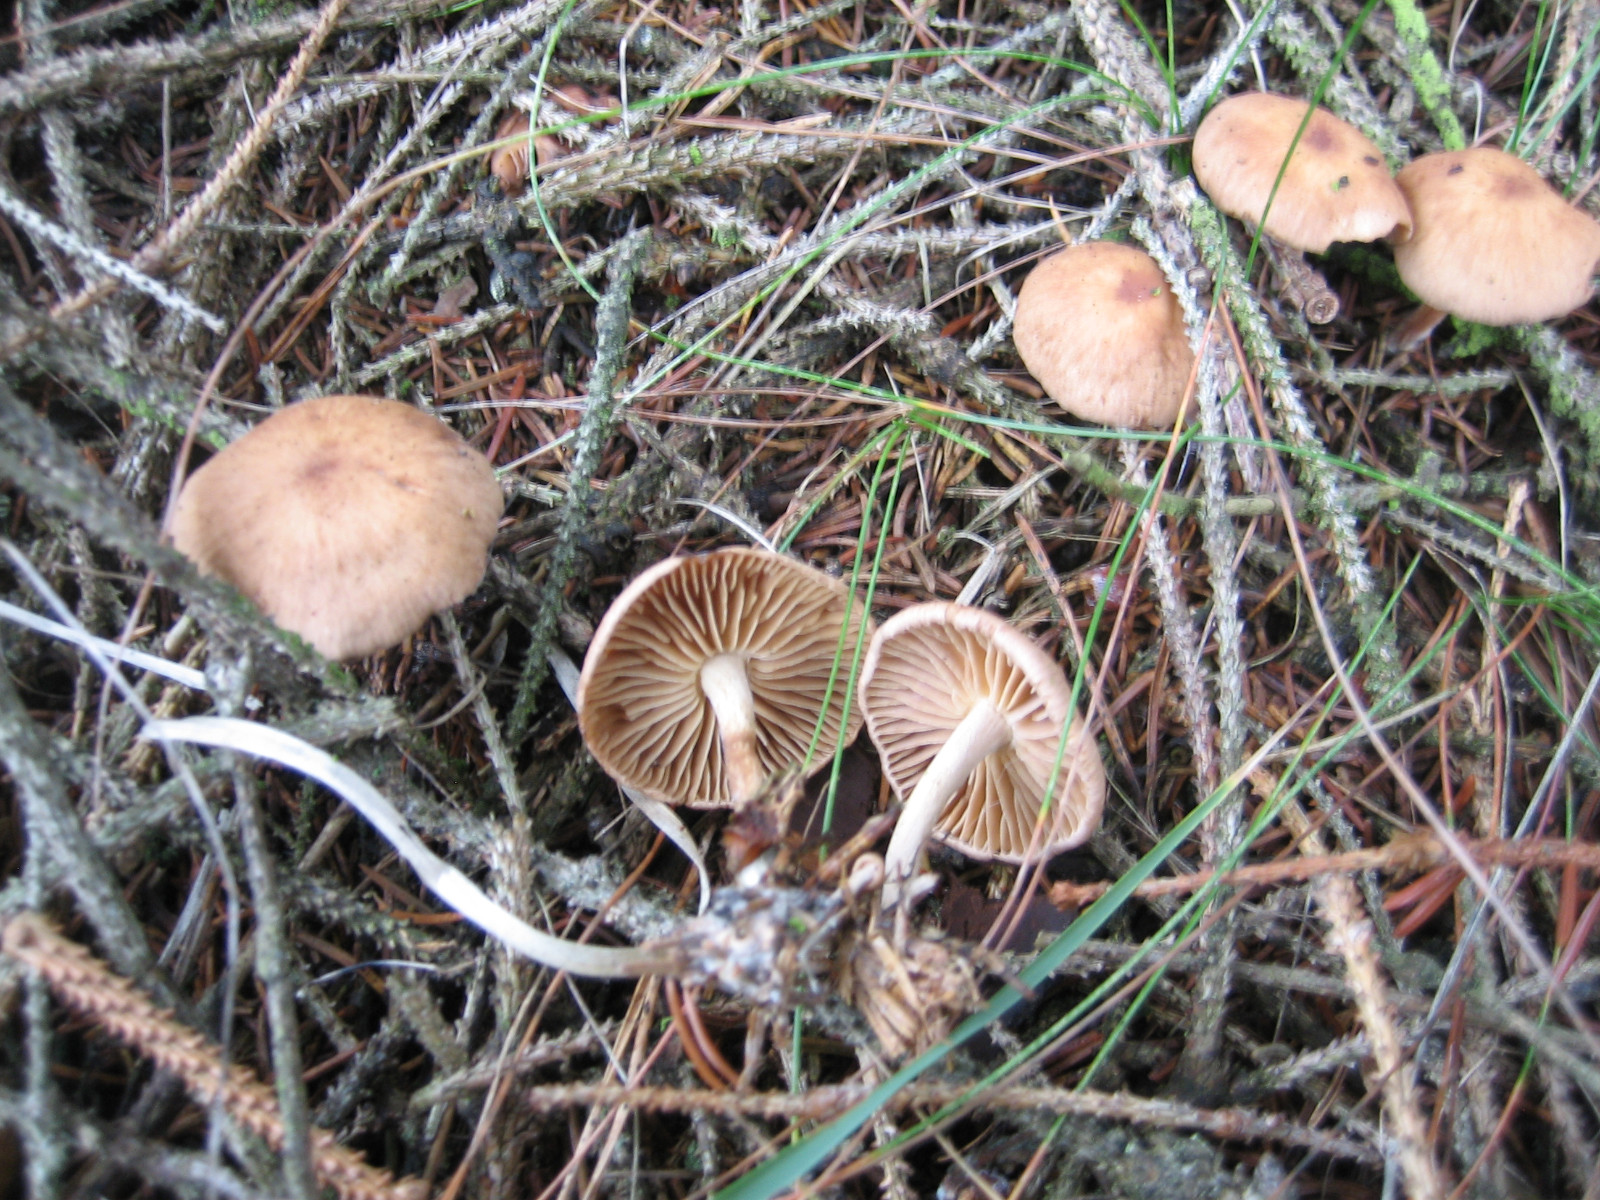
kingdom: Fungi
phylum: Basidiomycota
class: Agaricomycetes
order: Agaricales
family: Omphalotaceae
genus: Collybiopsis
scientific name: Collybiopsis peronata
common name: bestøvlet fladhat
